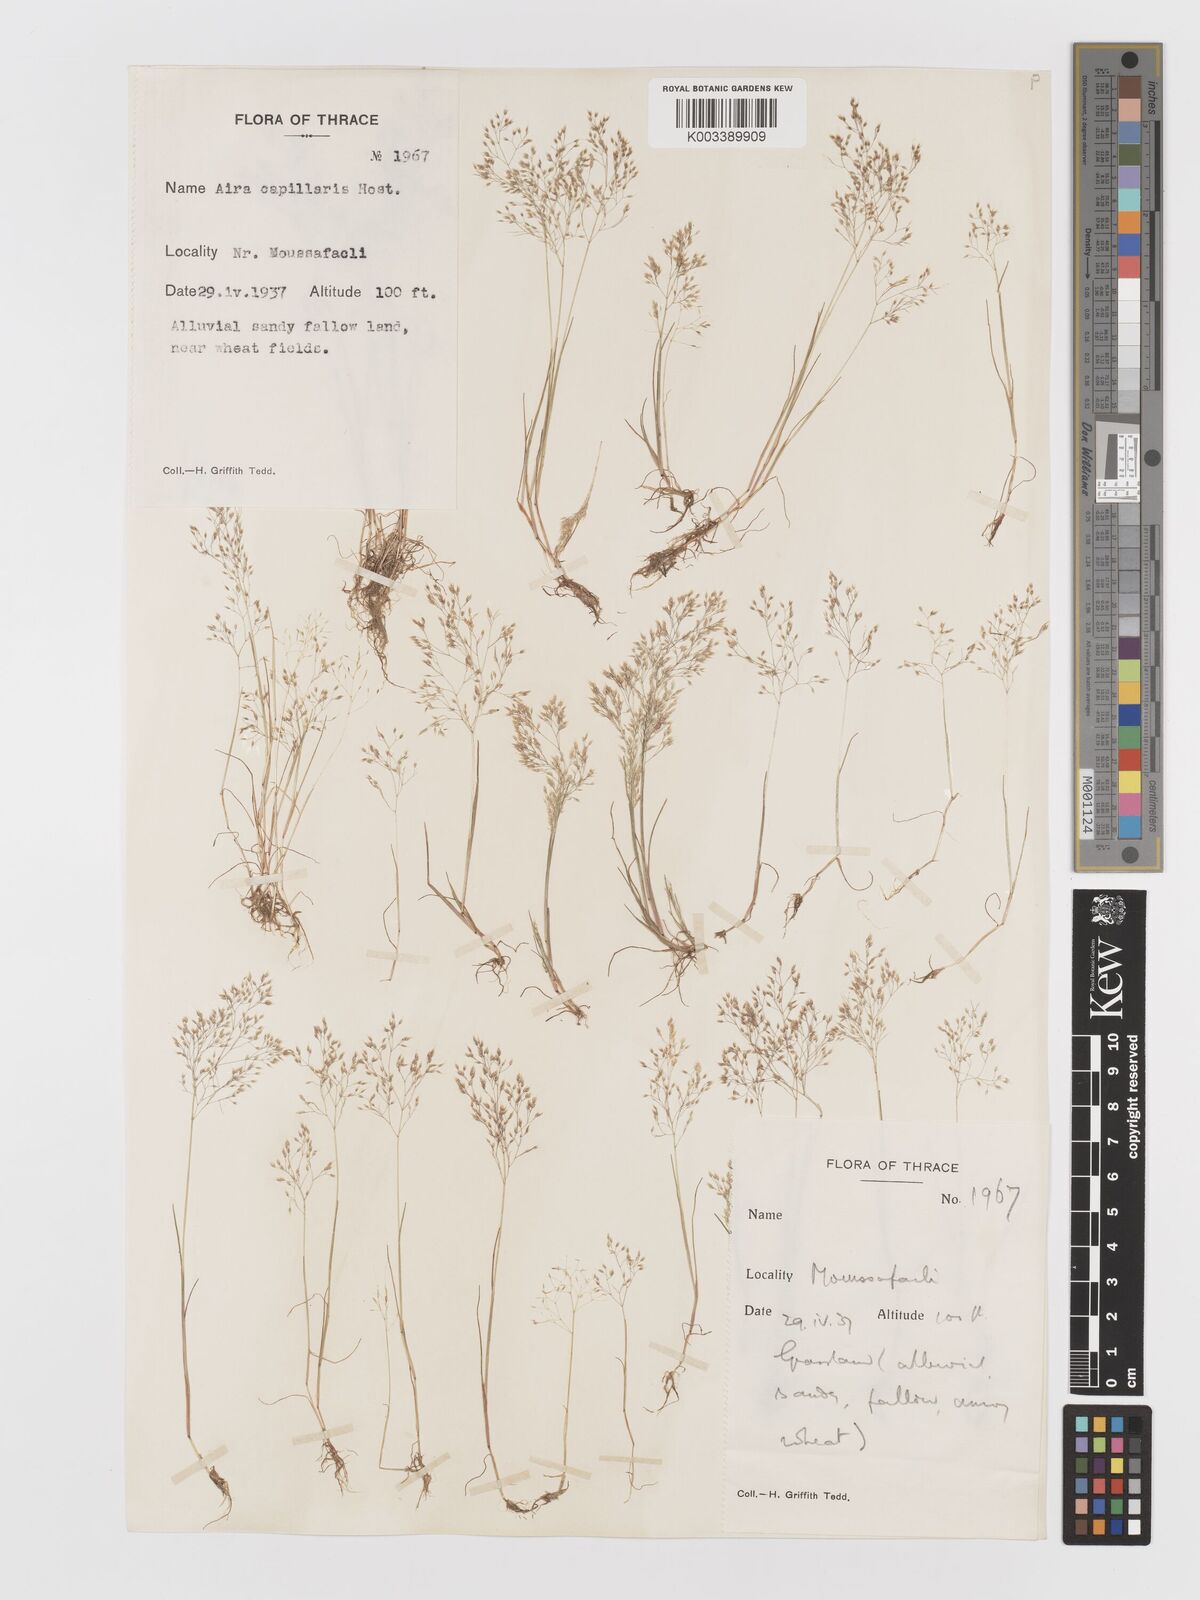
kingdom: Plantae
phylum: Tracheophyta
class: Liliopsida
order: Poales
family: Poaceae
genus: Aira
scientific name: Aira elegans
